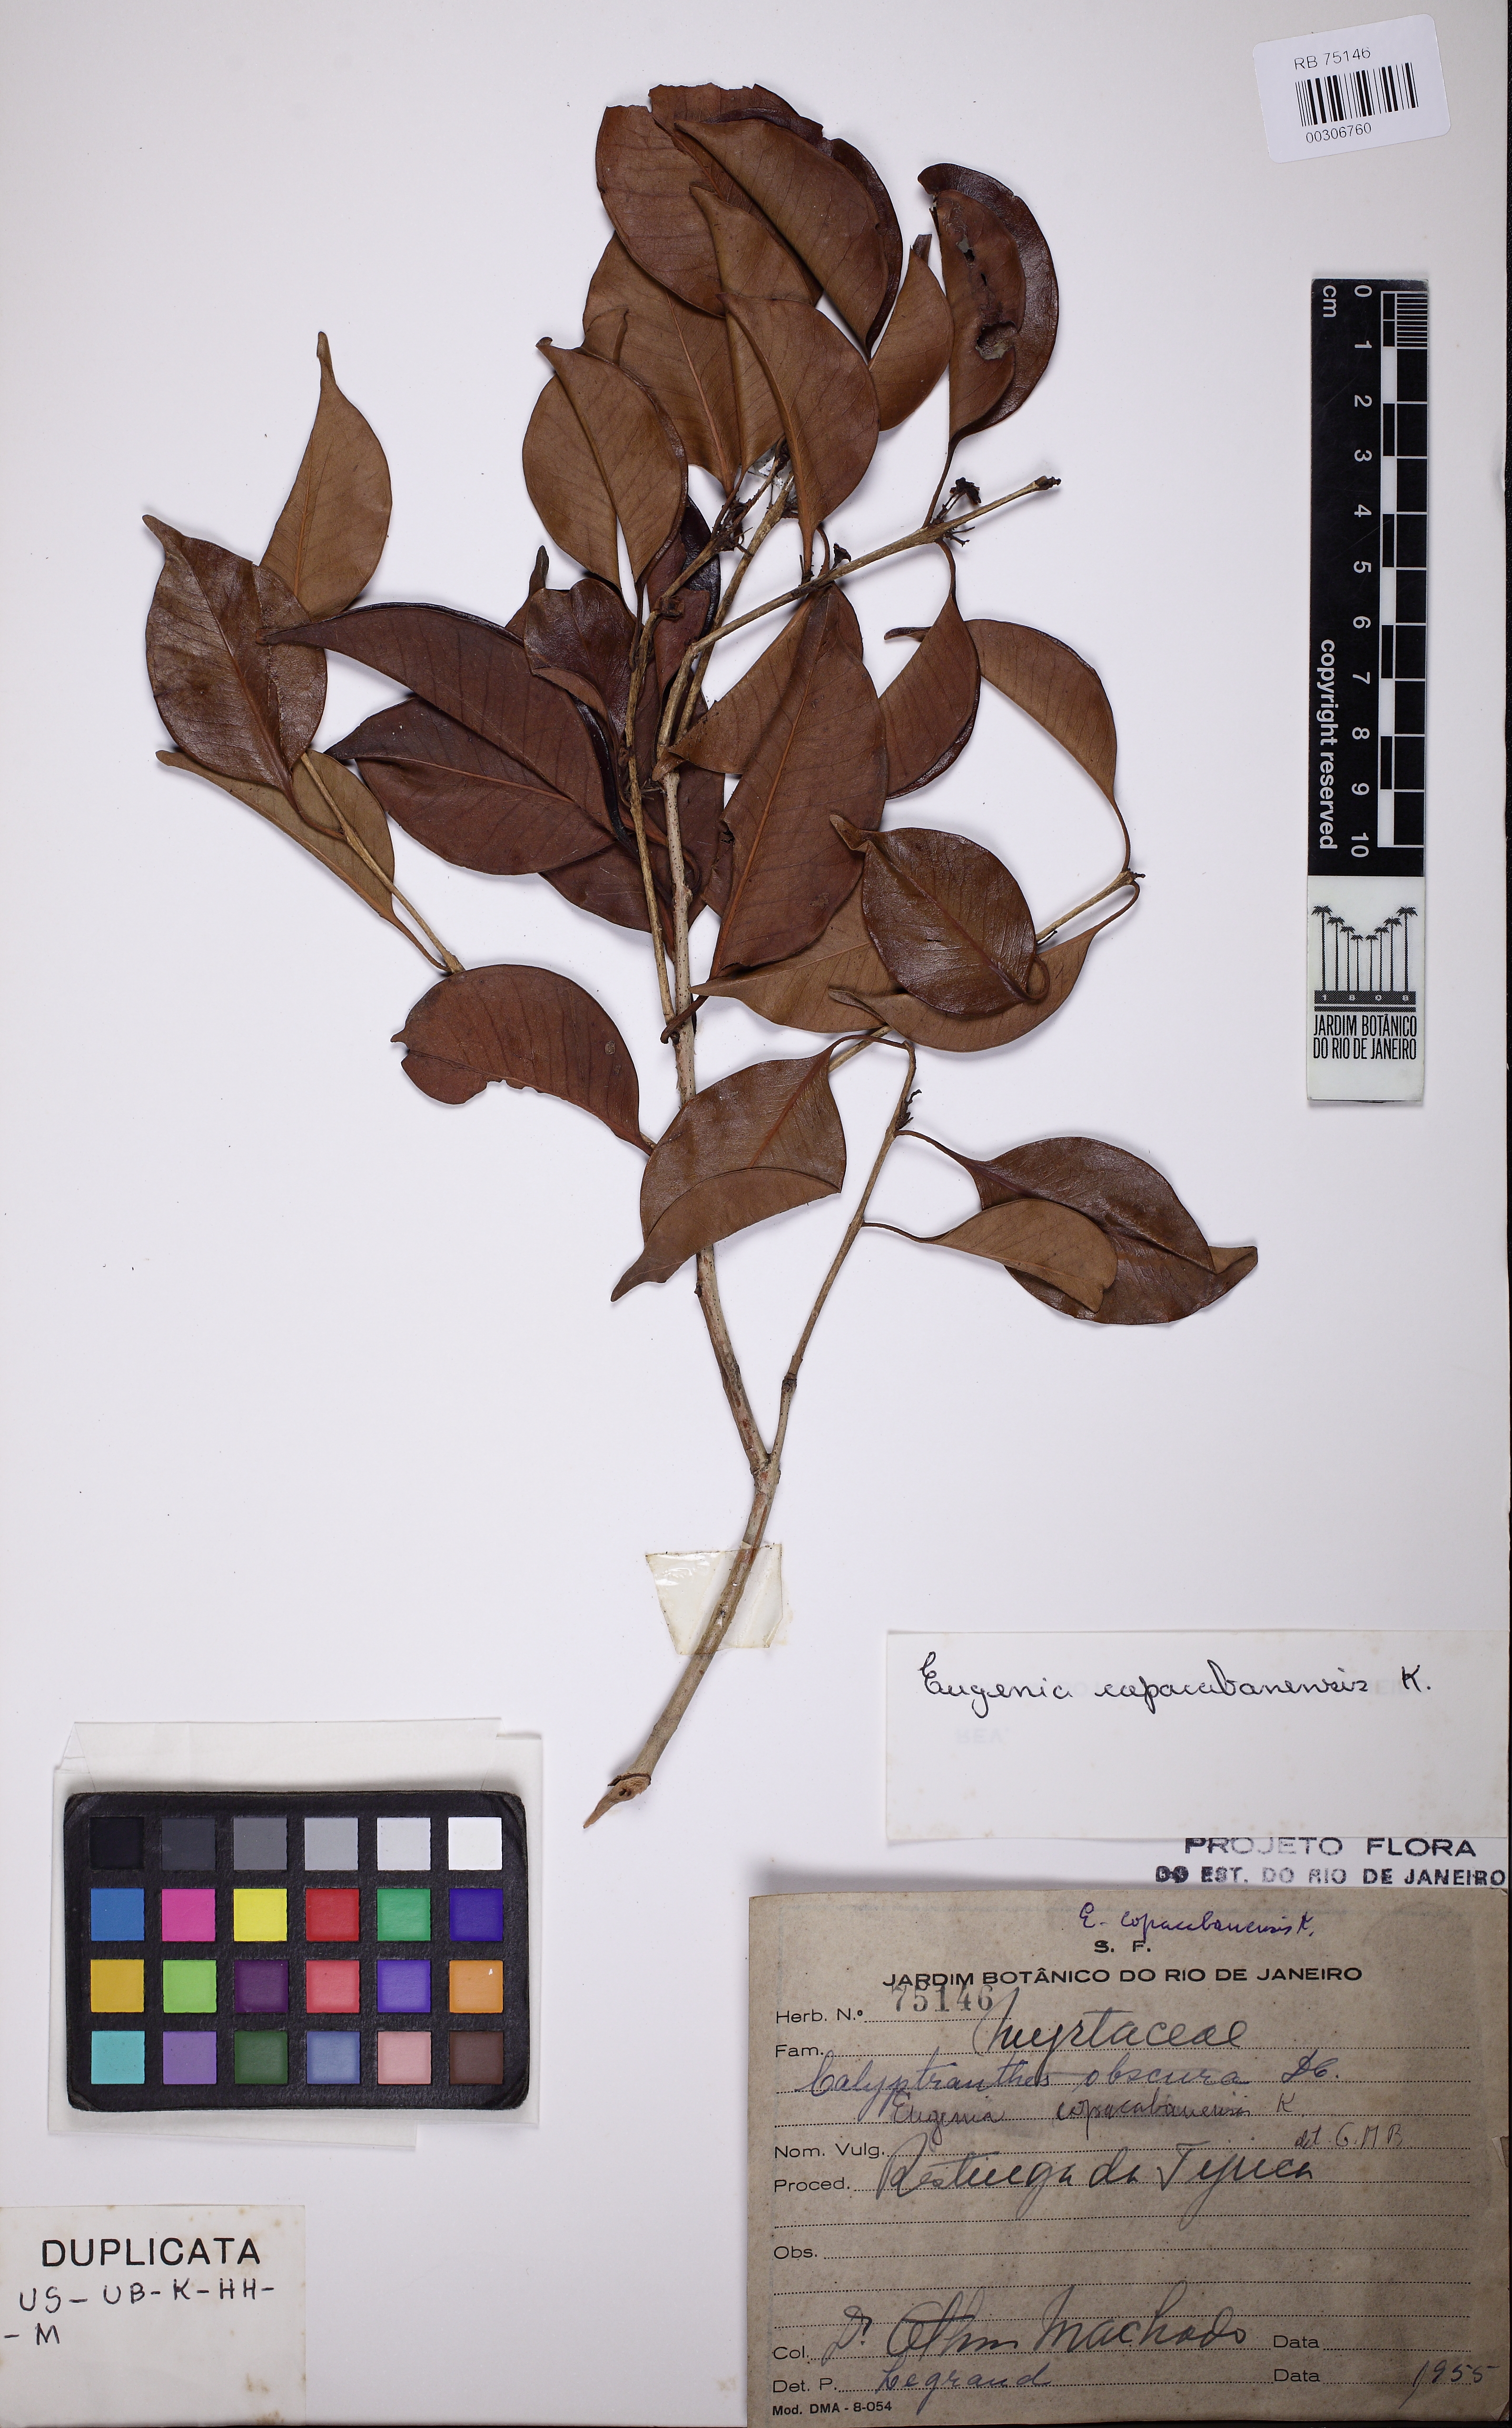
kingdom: Plantae
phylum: Tracheophyta
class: Magnoliopsida
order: Myrtales
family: Myrtaceae
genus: Eugenia
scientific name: Eugenia copacabanensis
